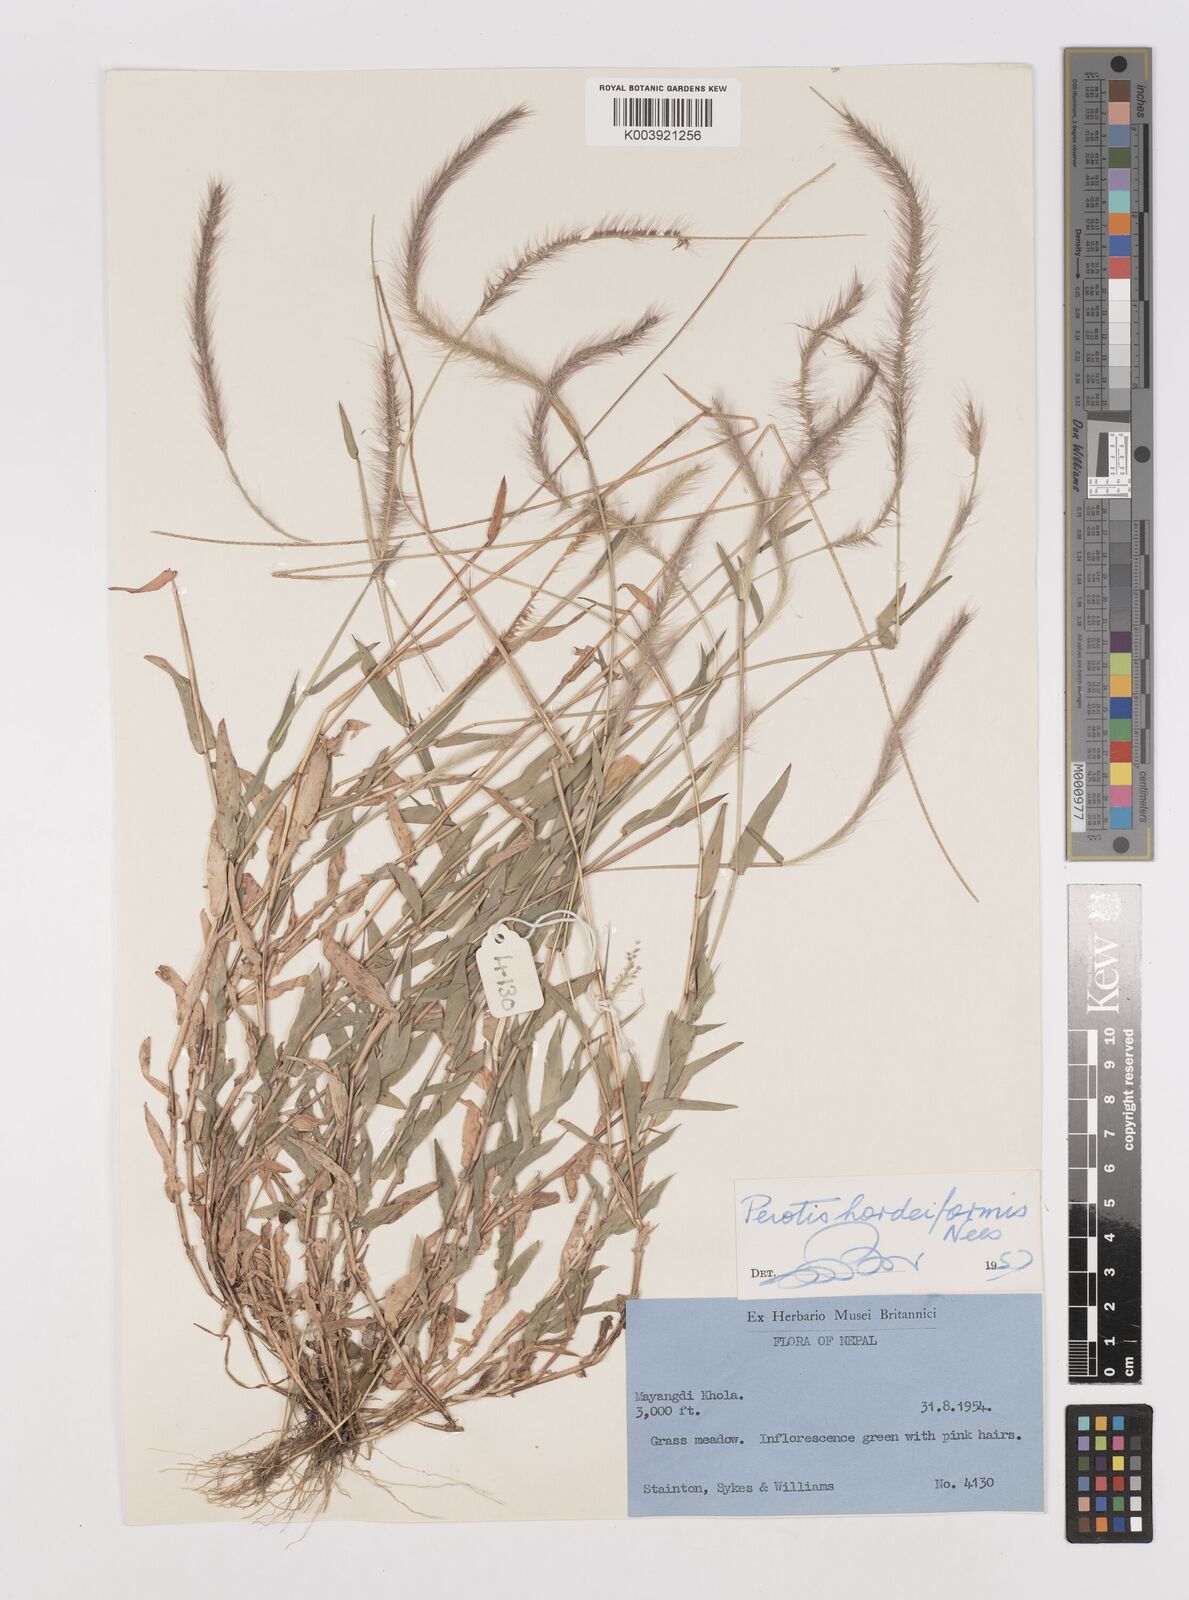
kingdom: Plantae
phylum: Tracheophyta
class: Liliopsida
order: Poales
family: Poaceae
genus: Perotis
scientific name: Perotis hordeiformis
